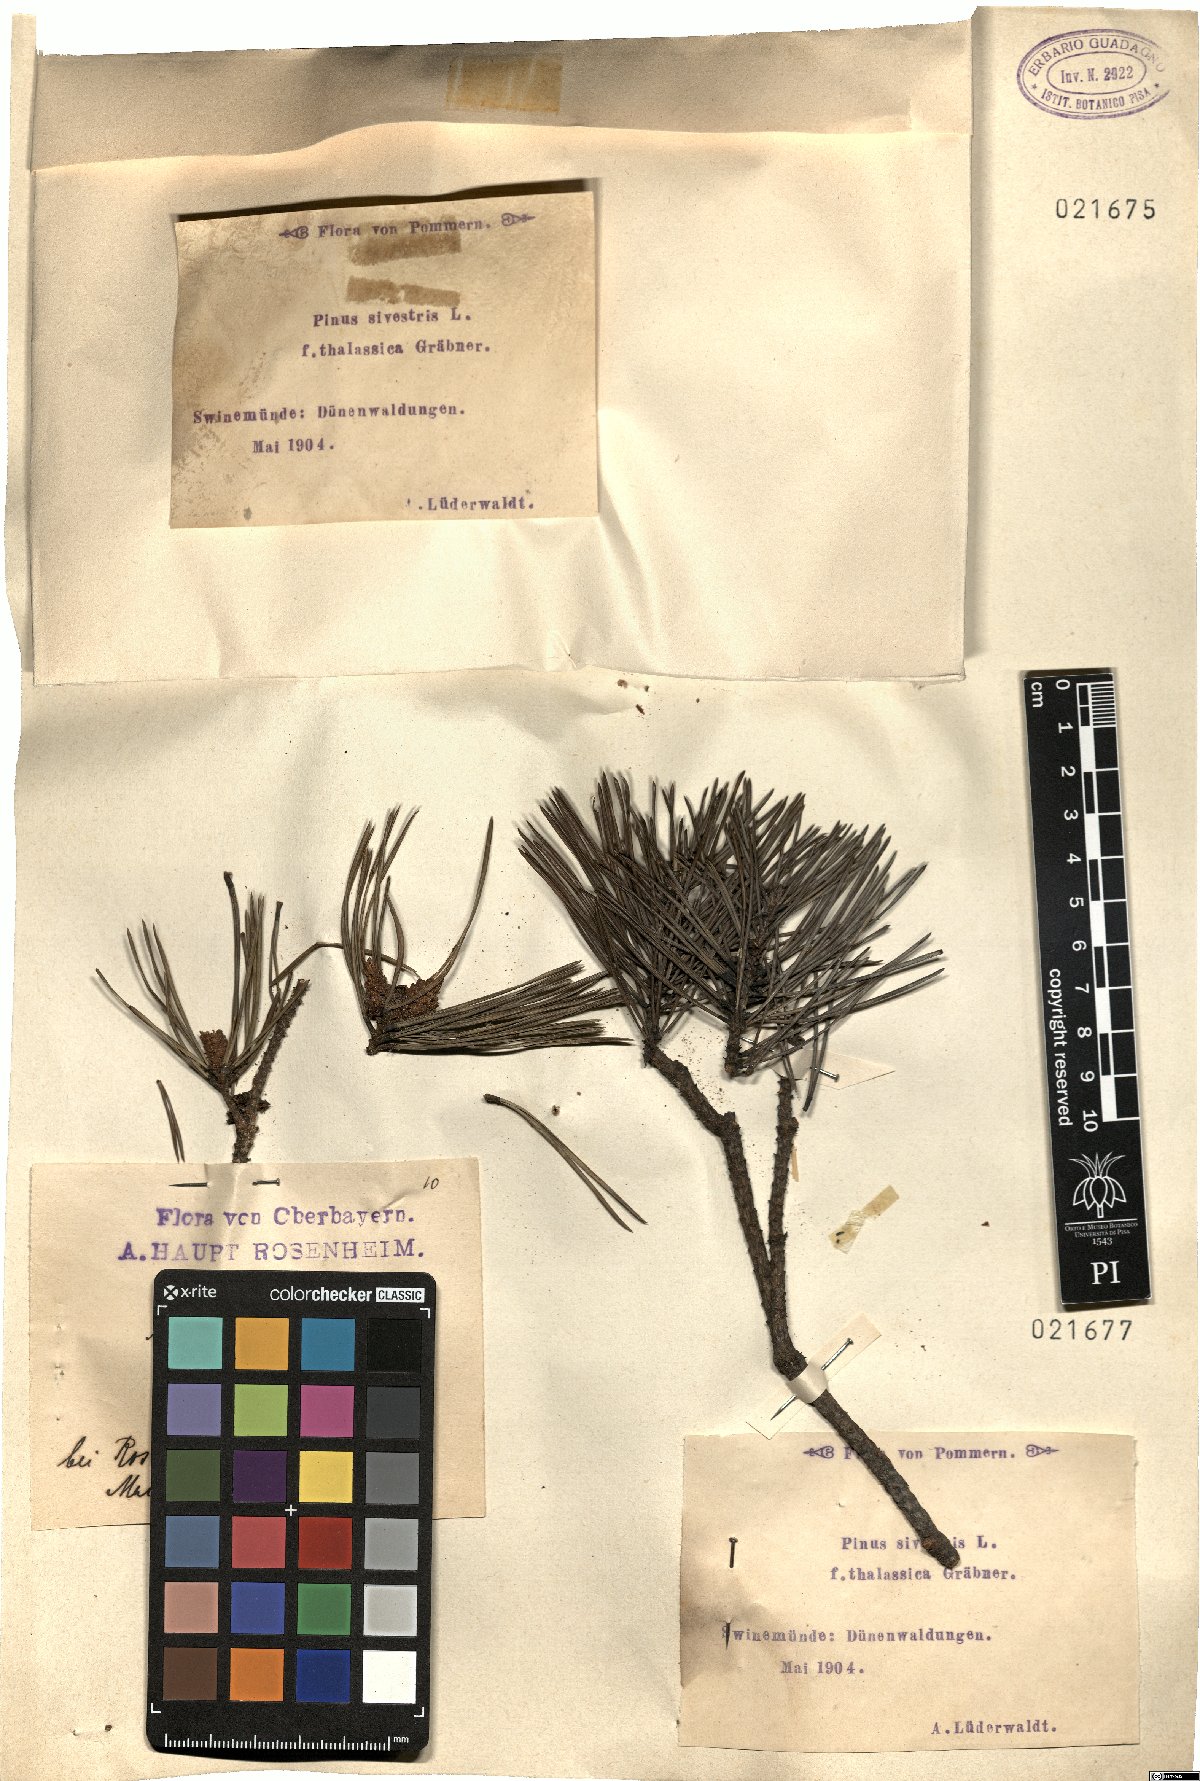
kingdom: Plantae
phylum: Tracheophyta
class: Pinopsida
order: Pinales
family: Pinaceae
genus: Pinus
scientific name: Pinus sylvestris
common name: Scots pine
